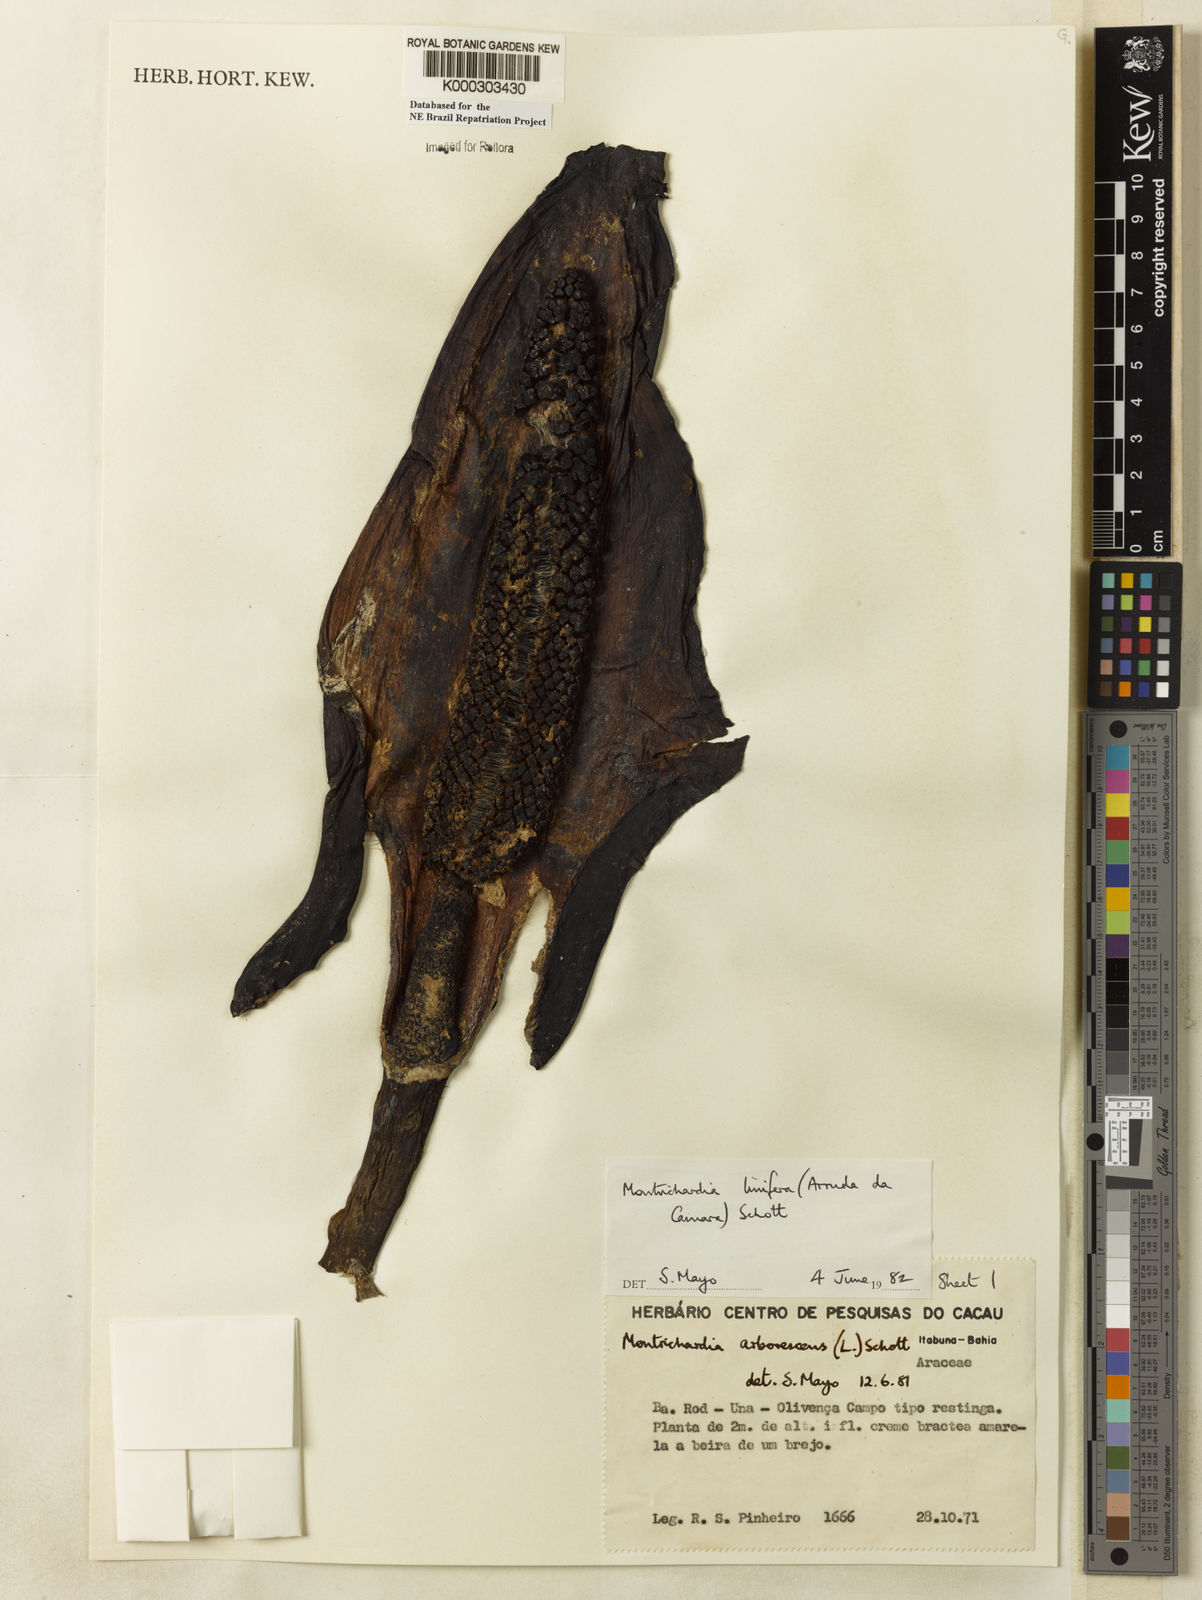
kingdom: Plantae
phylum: Tracheophyta
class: Liliopsida
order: Alismatales
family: Araceae
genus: Montrichardia
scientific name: Montrichardia linifera
